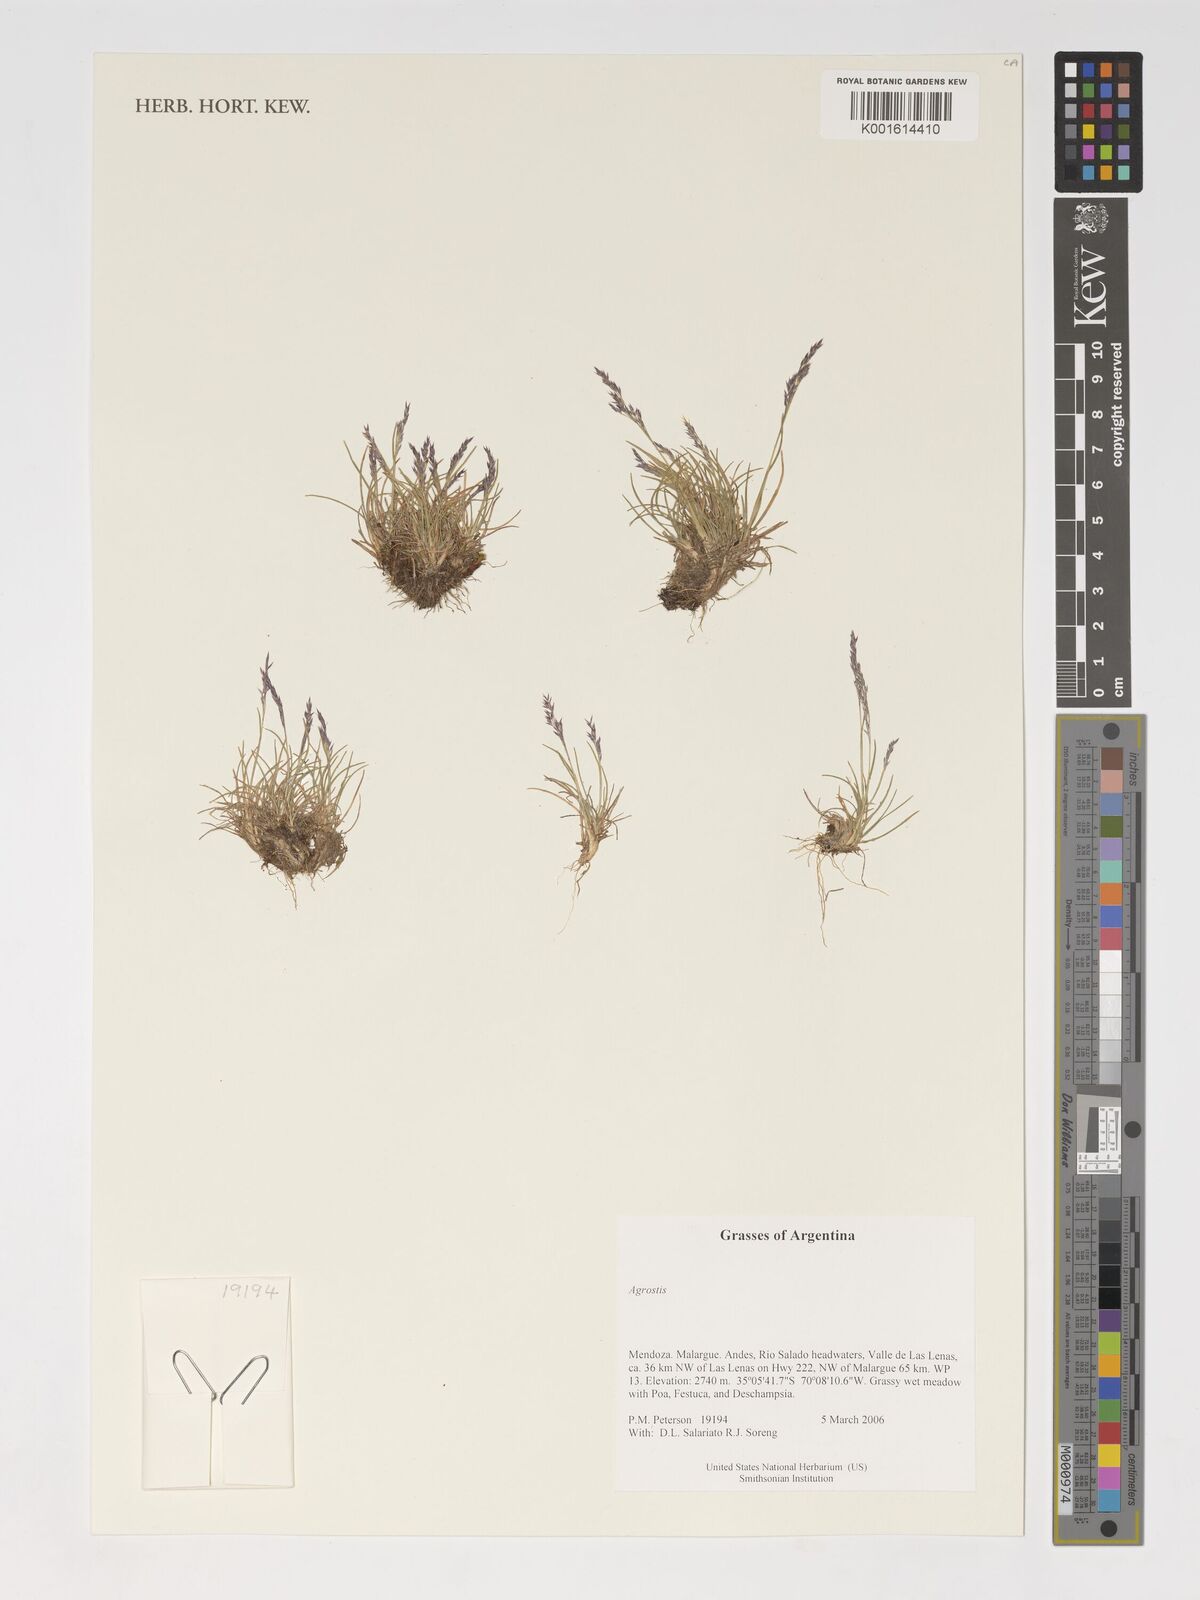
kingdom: Plantae
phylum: Tracheophyta
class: Liliopsida
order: Poales
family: Poaceae
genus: Agrostis
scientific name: Agrostis
